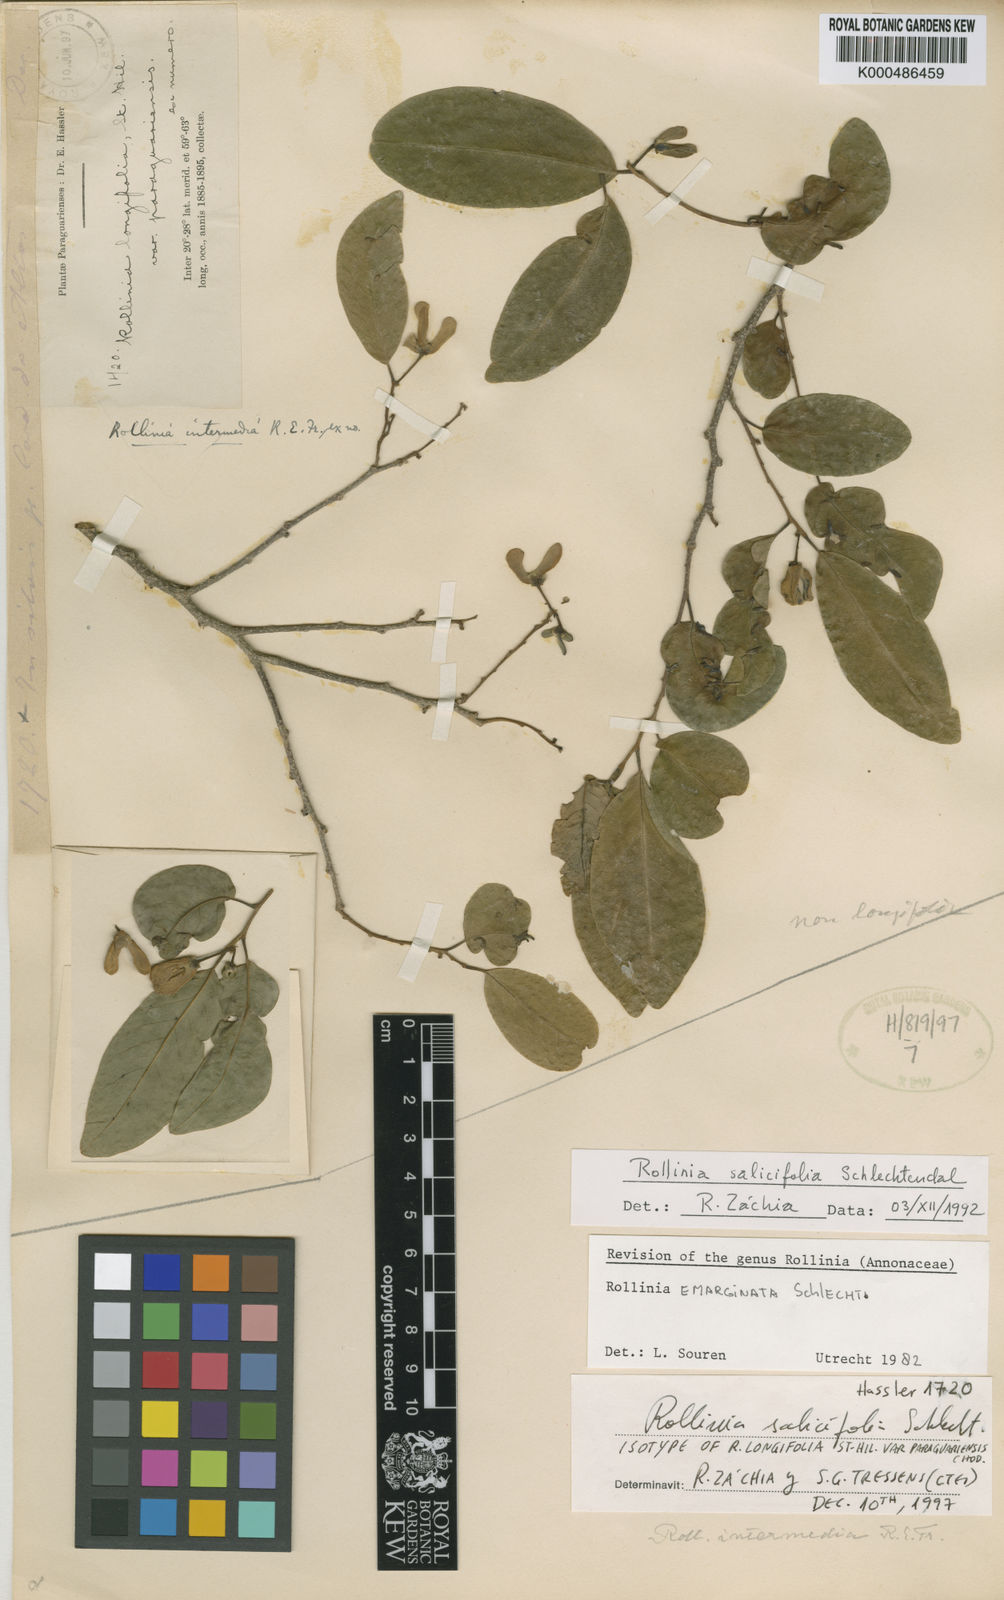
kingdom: Plantae
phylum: Tracheophyta
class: Magnoliopsida
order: Magnoliales
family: Annonaceae
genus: Annona
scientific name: Annona neosalicifolia
